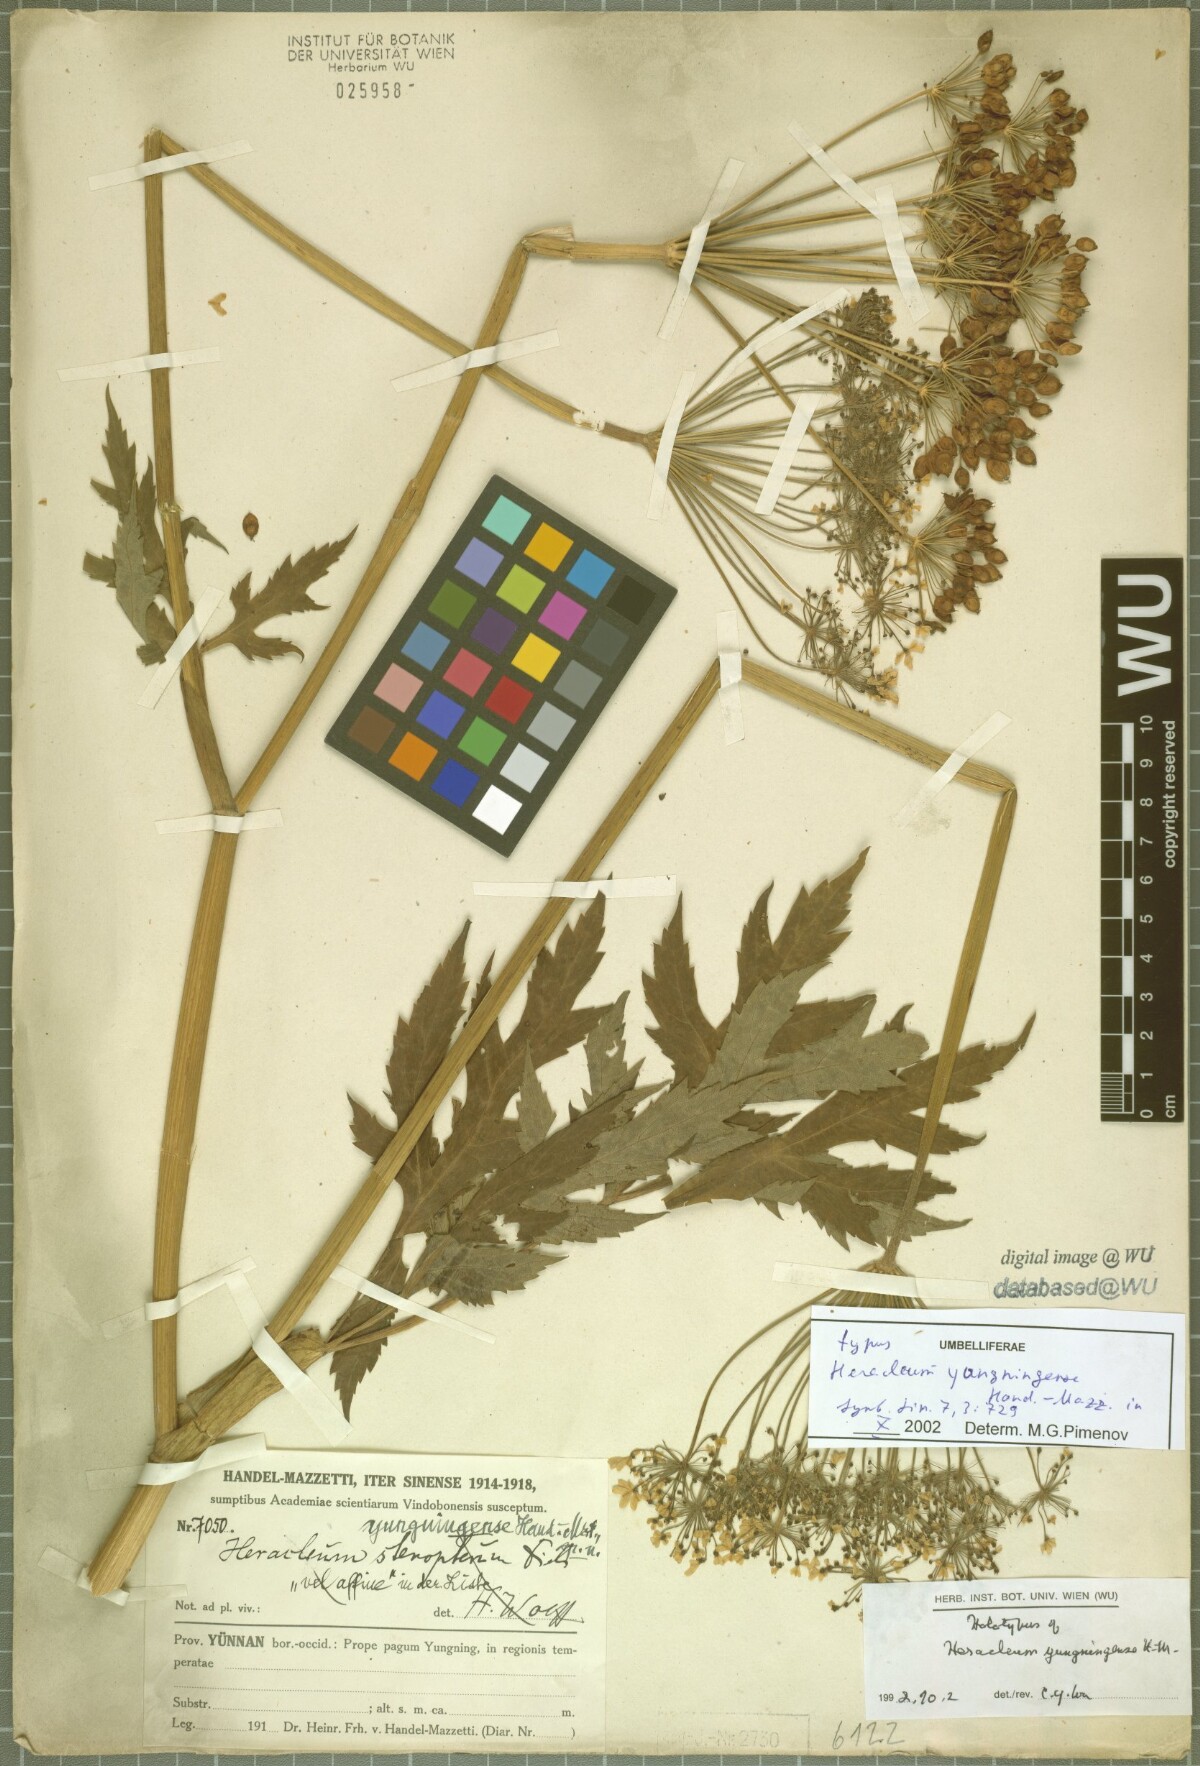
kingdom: Plantae
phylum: Tracheophyta
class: Magnoliopsida
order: Apiales
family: Apiaceae
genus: Heracleum
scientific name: Heracleum yungningense
